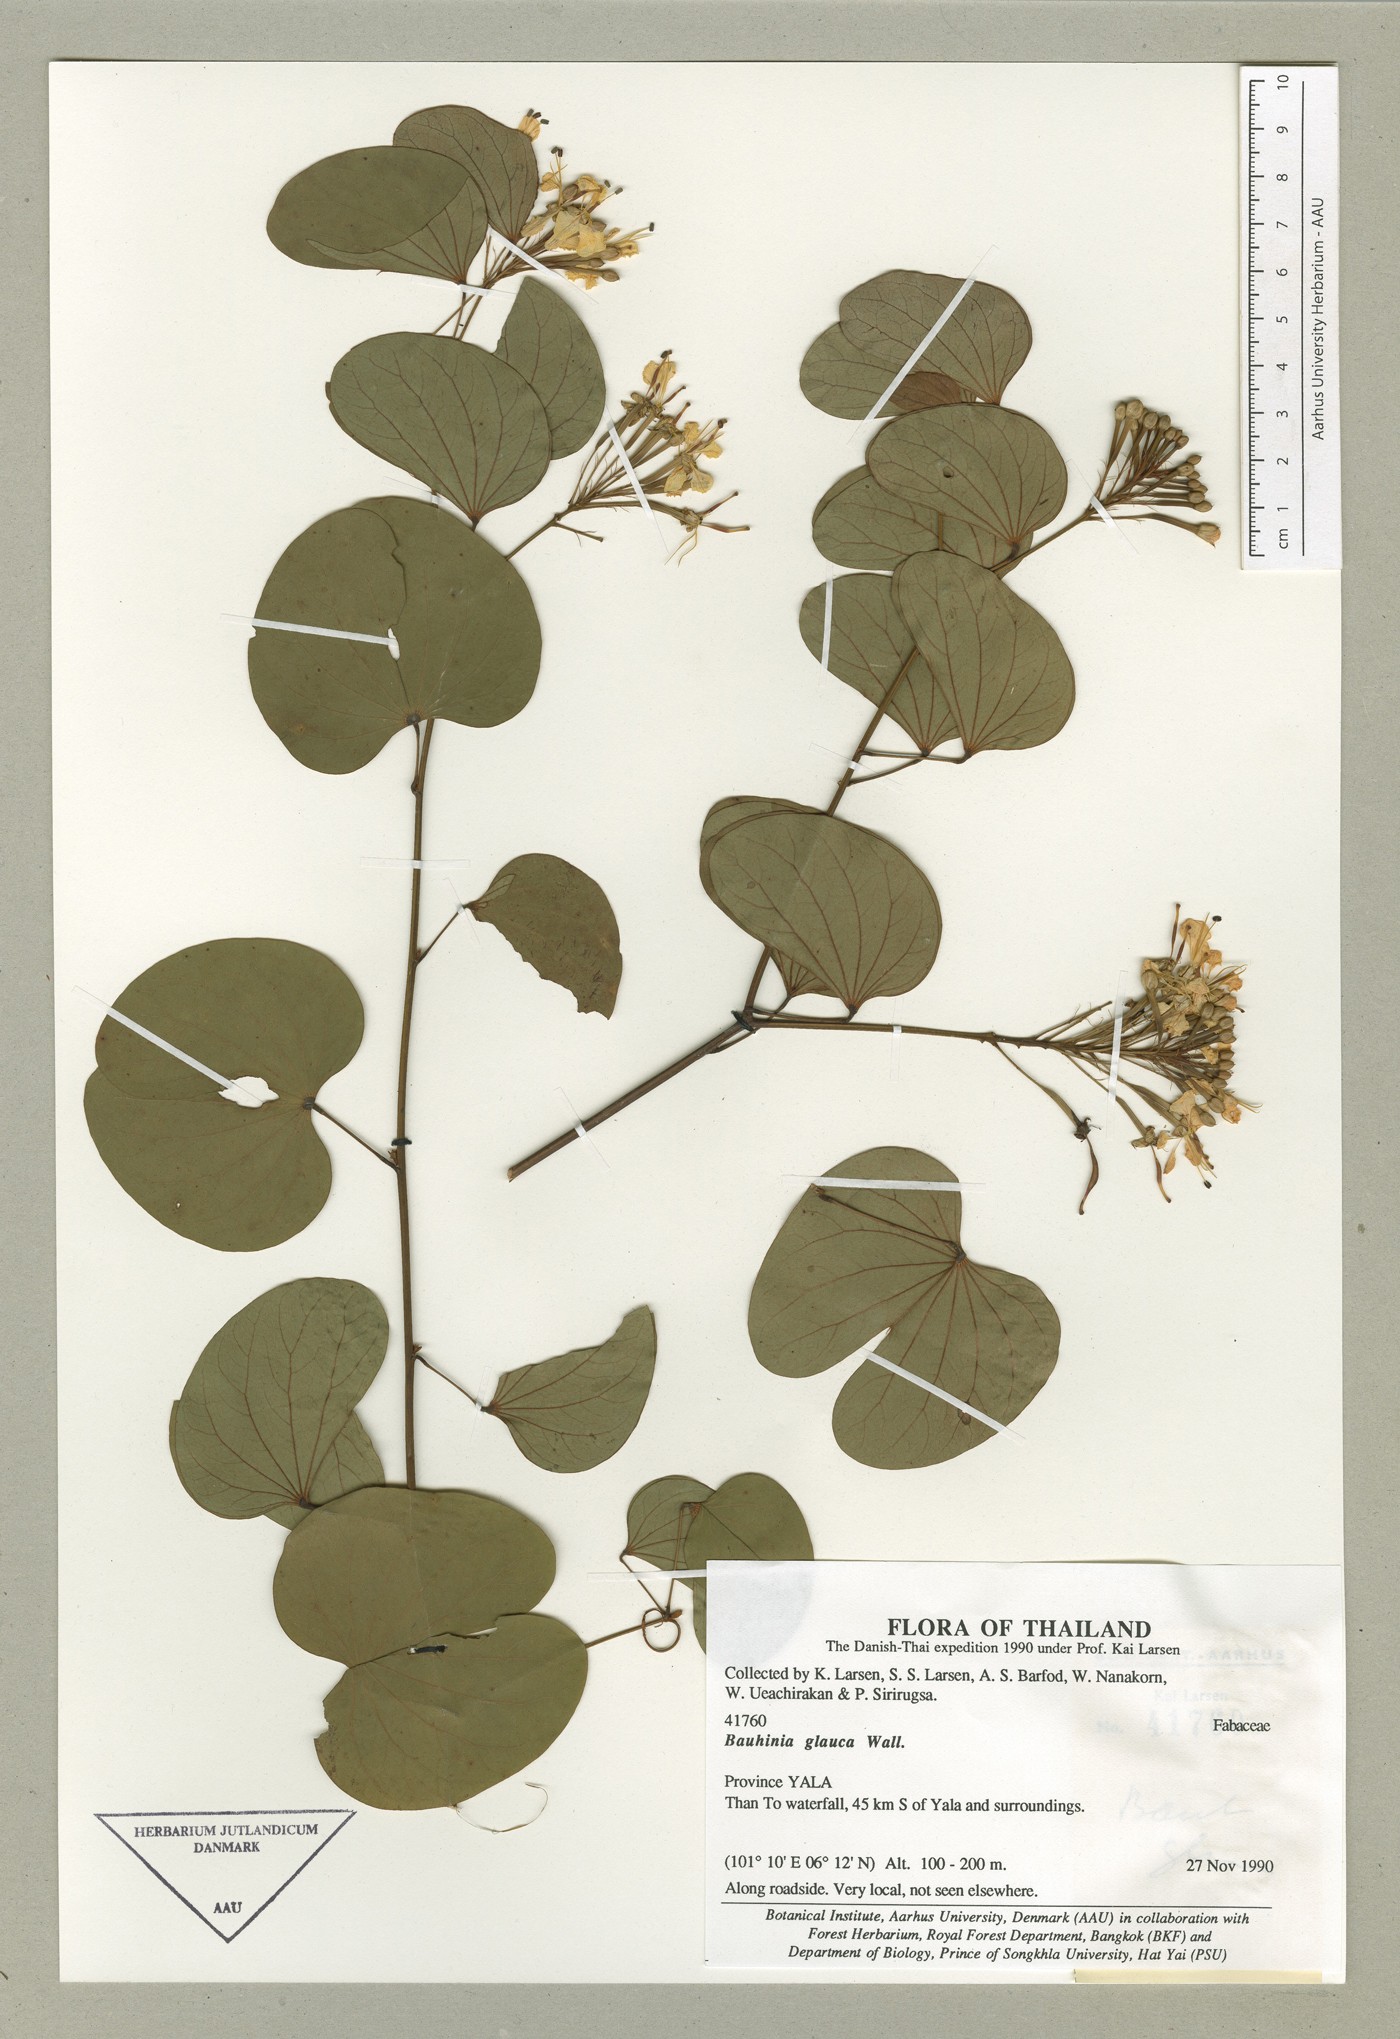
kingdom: Plantae
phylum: Tracheophyta
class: Magnoliopsida
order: Fabales
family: Fabaceae
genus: Bauhinia
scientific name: Bauhinia glauca
